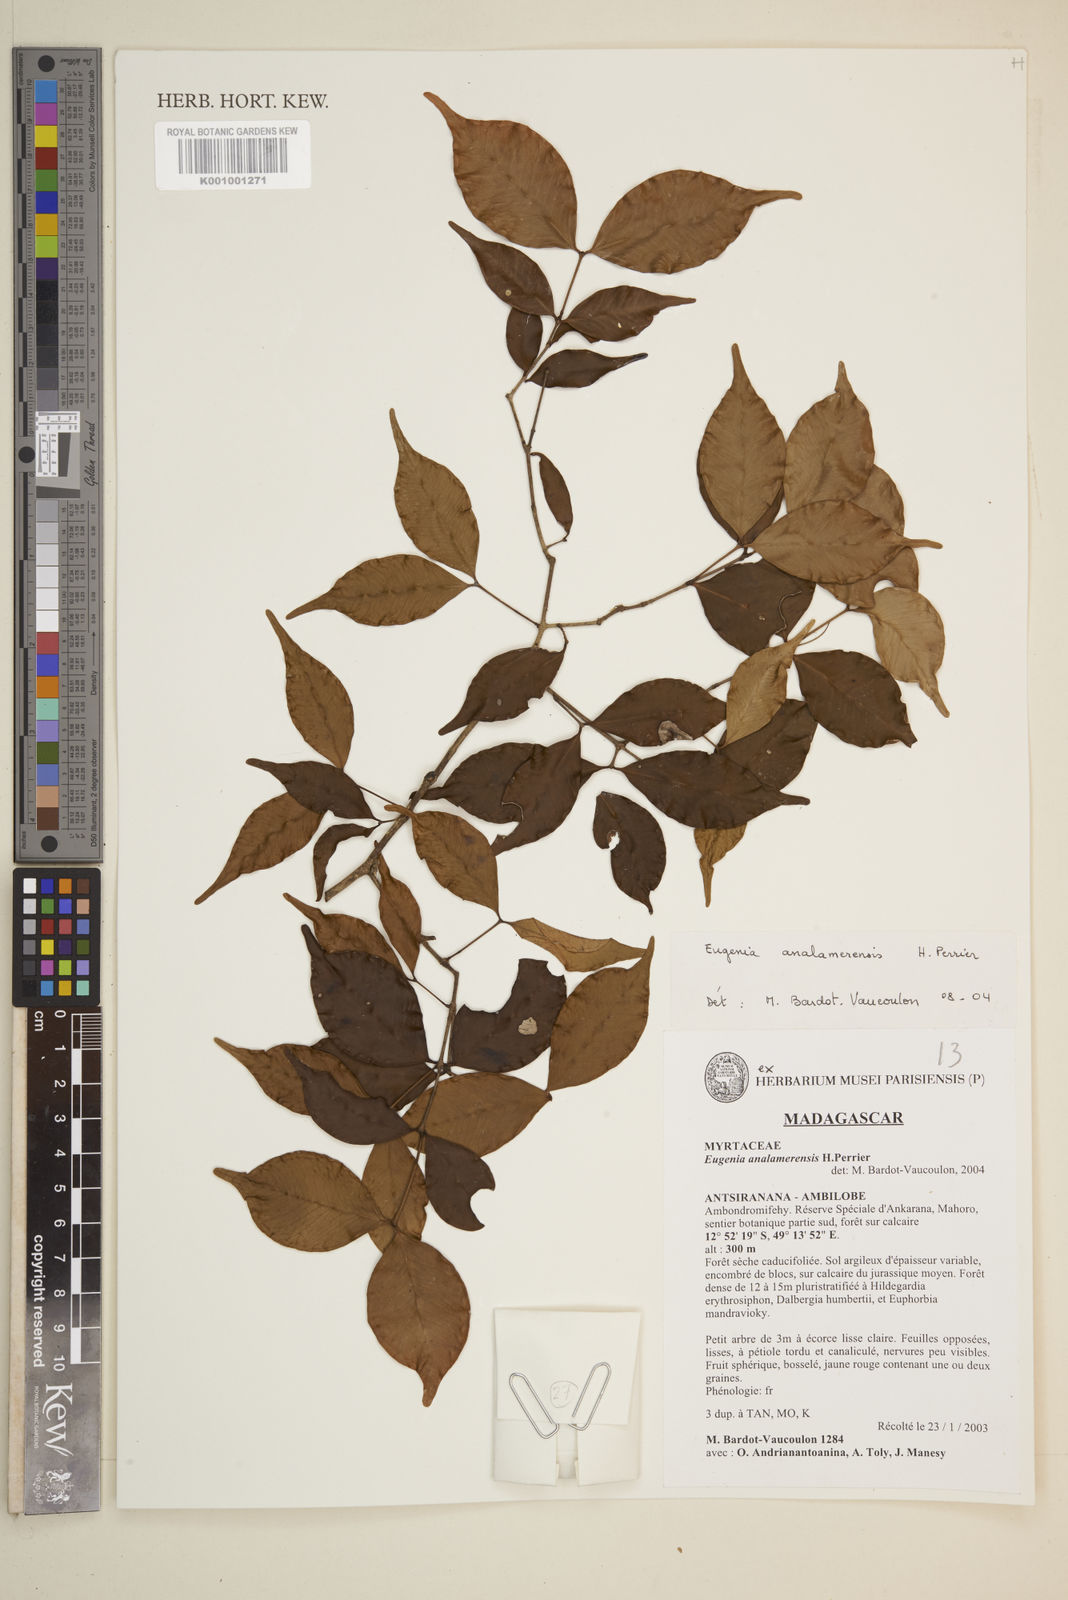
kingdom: Plantae
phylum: Tracheophyta
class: Magnoliopsida
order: Myrtales
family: Myrtaceae
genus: Eugenia
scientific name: Eugenia analamerensis
